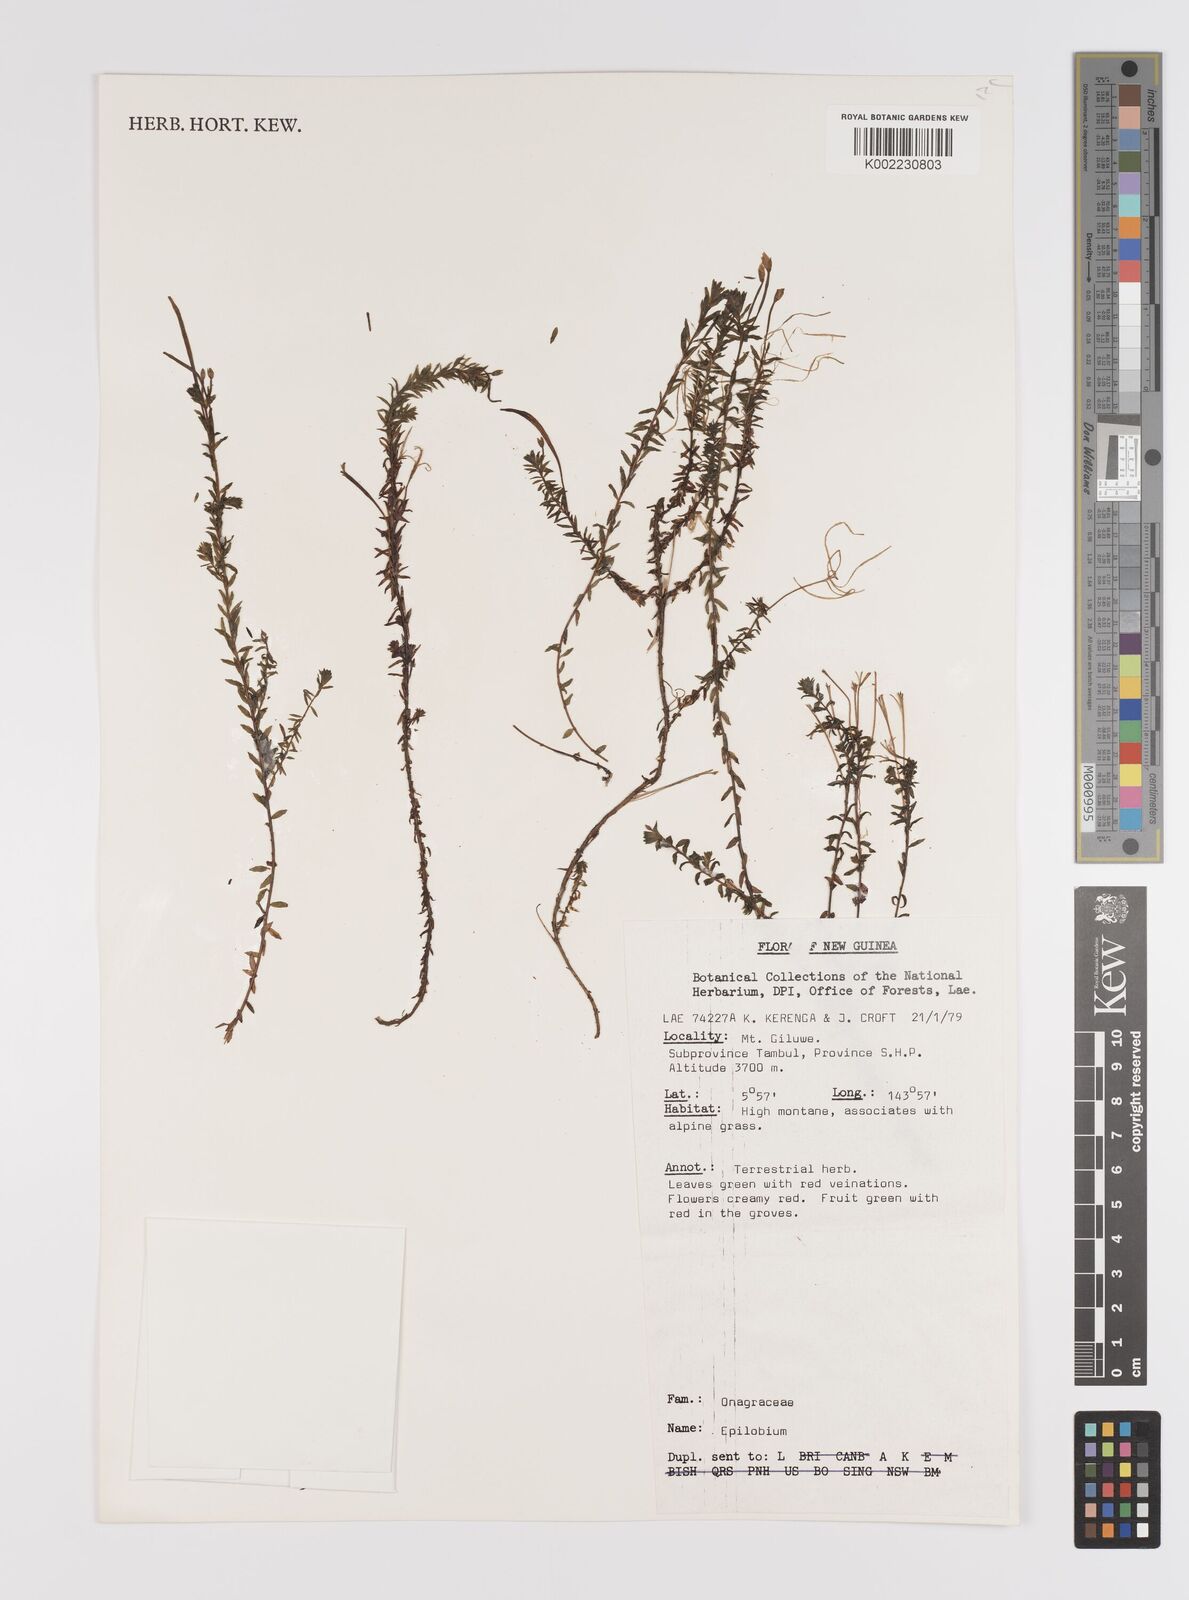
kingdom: Plantae
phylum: Tracheophyta
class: Magnoliopsida
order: Myrtales
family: Onagraceae
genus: Epilobium
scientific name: Epilobium
